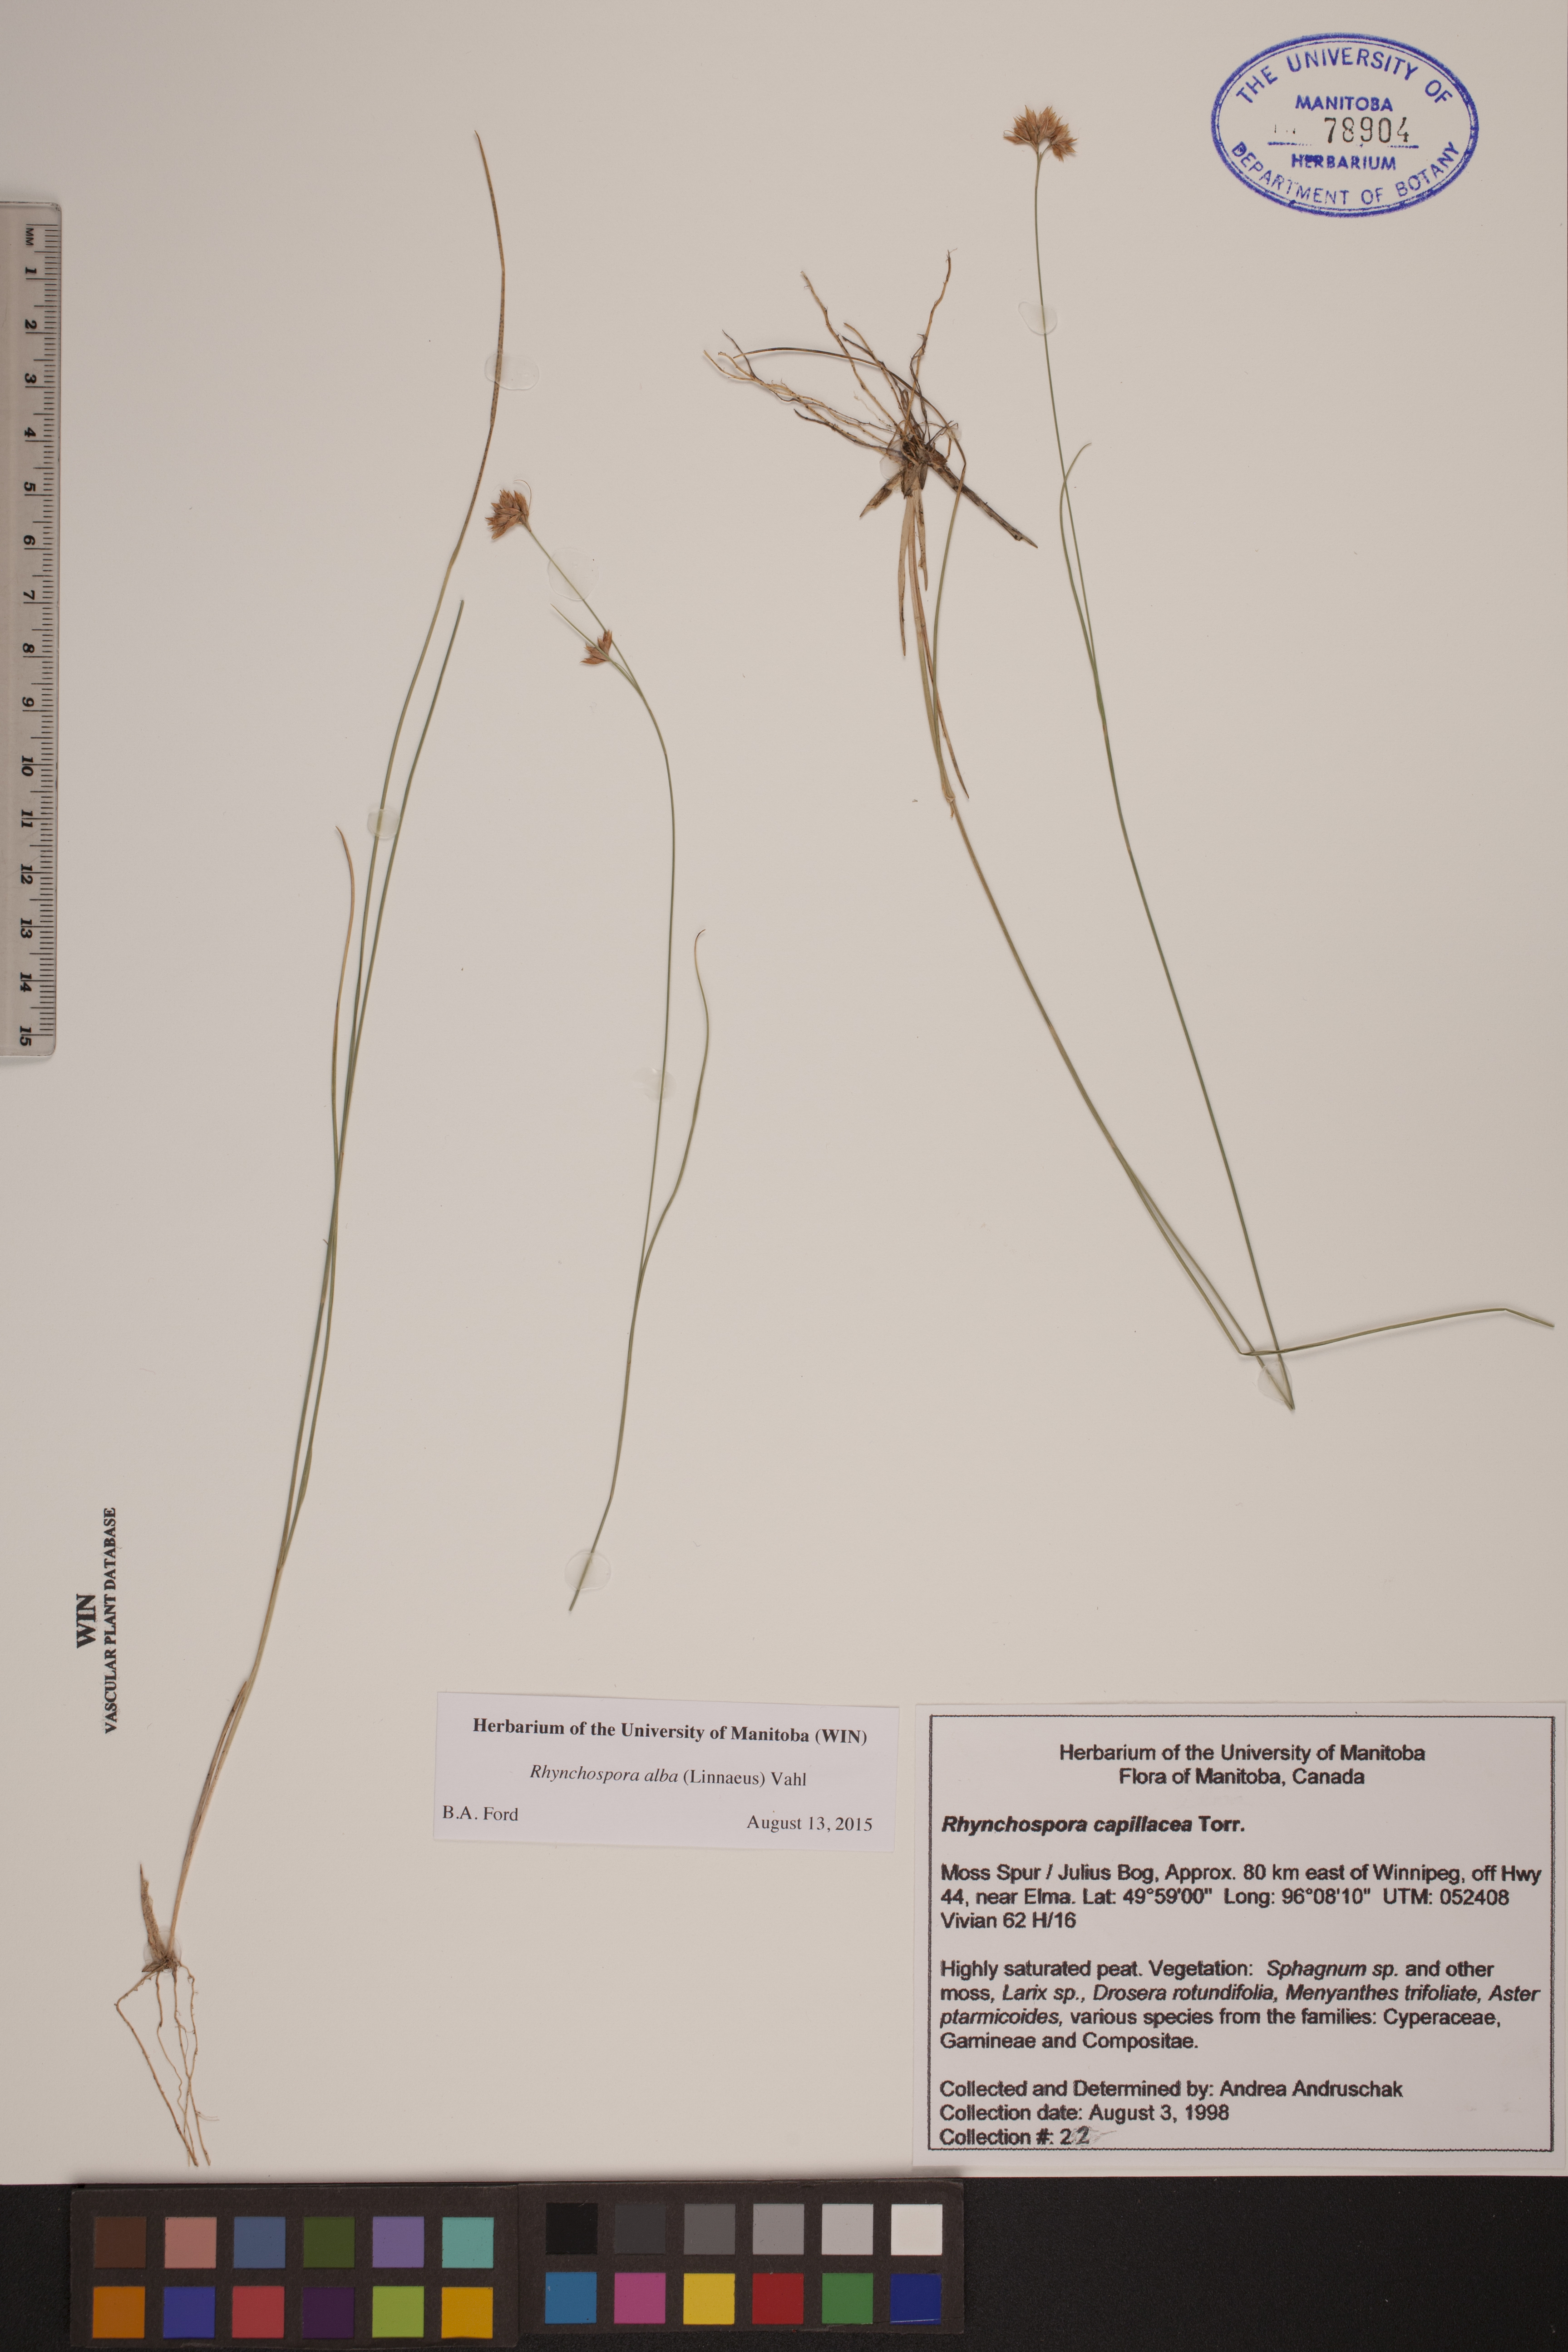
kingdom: Plantae
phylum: Tracheophyta
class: Liliopsida
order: Poales
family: Cyperaceae
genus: Rhynchospora
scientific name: Rhynchospora alba
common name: White beak-sedge
